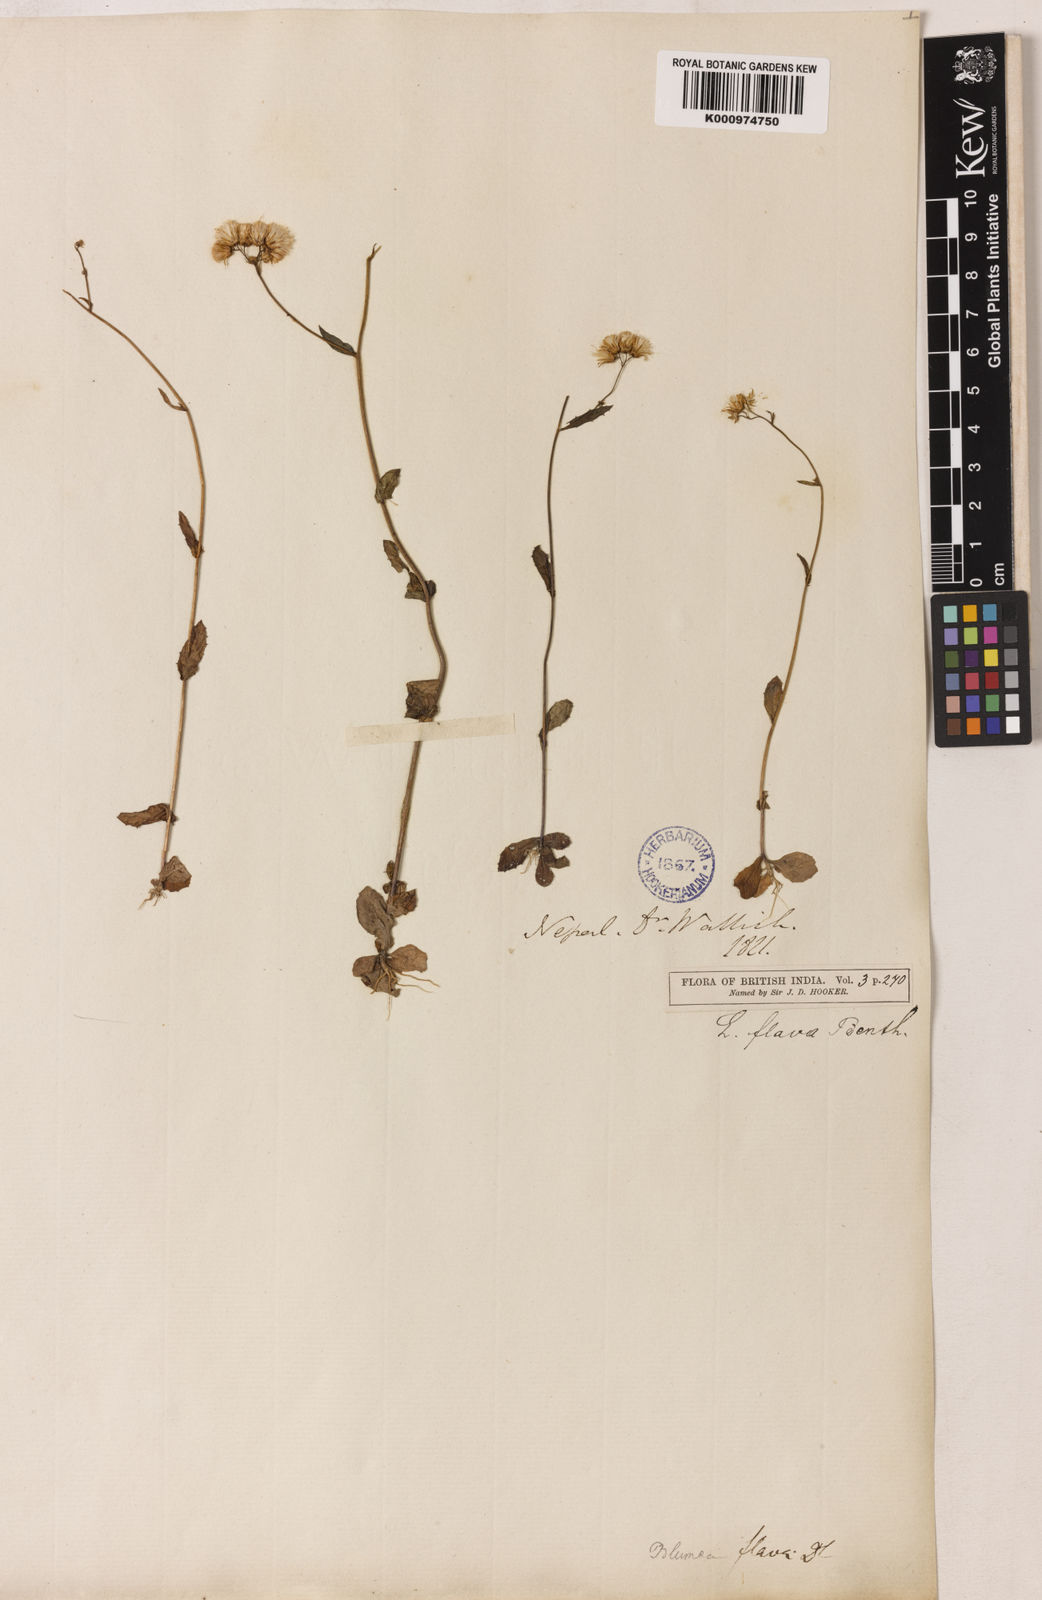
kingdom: Plantae
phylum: Tracheophyta
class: Magnoliopsida
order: Asterales
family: Asteraceae
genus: Blumeopsis
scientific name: Blumeopsis flava
